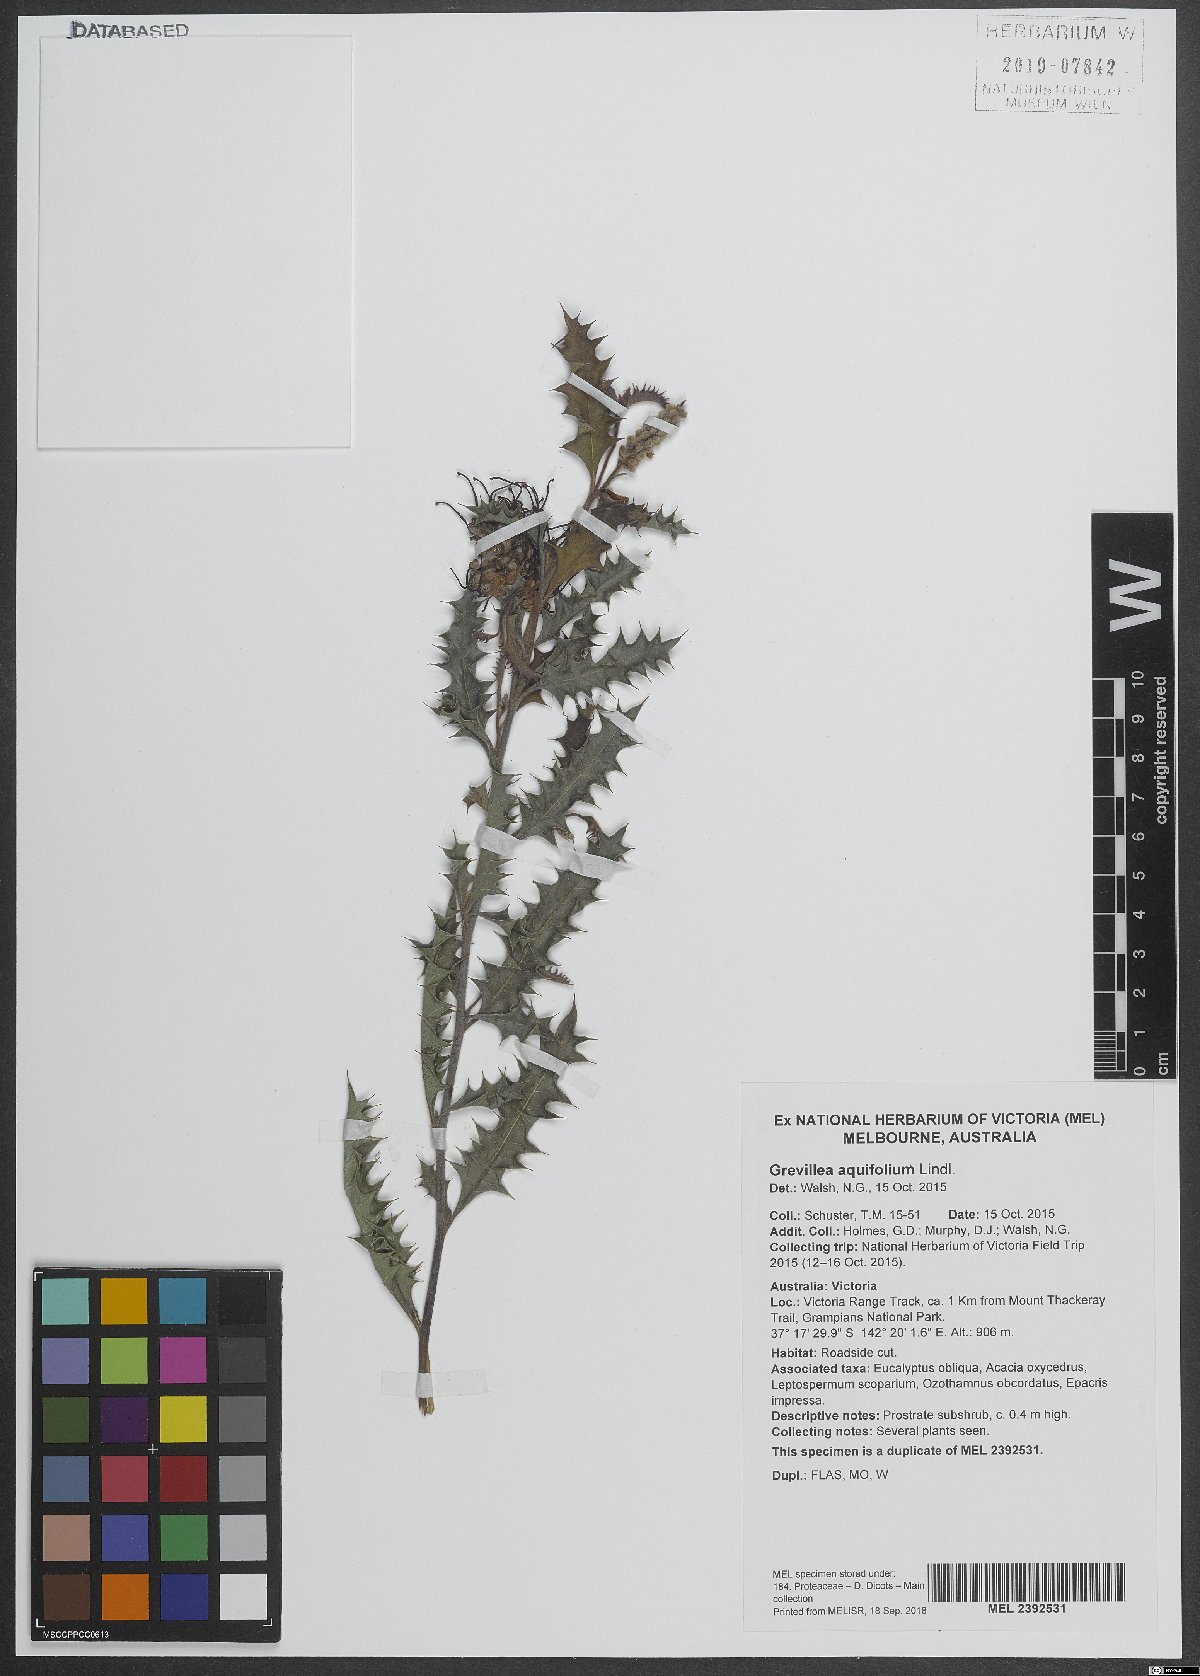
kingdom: Plantae
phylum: Tracheophyta
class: Magnoliopsida
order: Proteales
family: Proteaceae
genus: Grevillea
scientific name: Grevillea aquifolium
